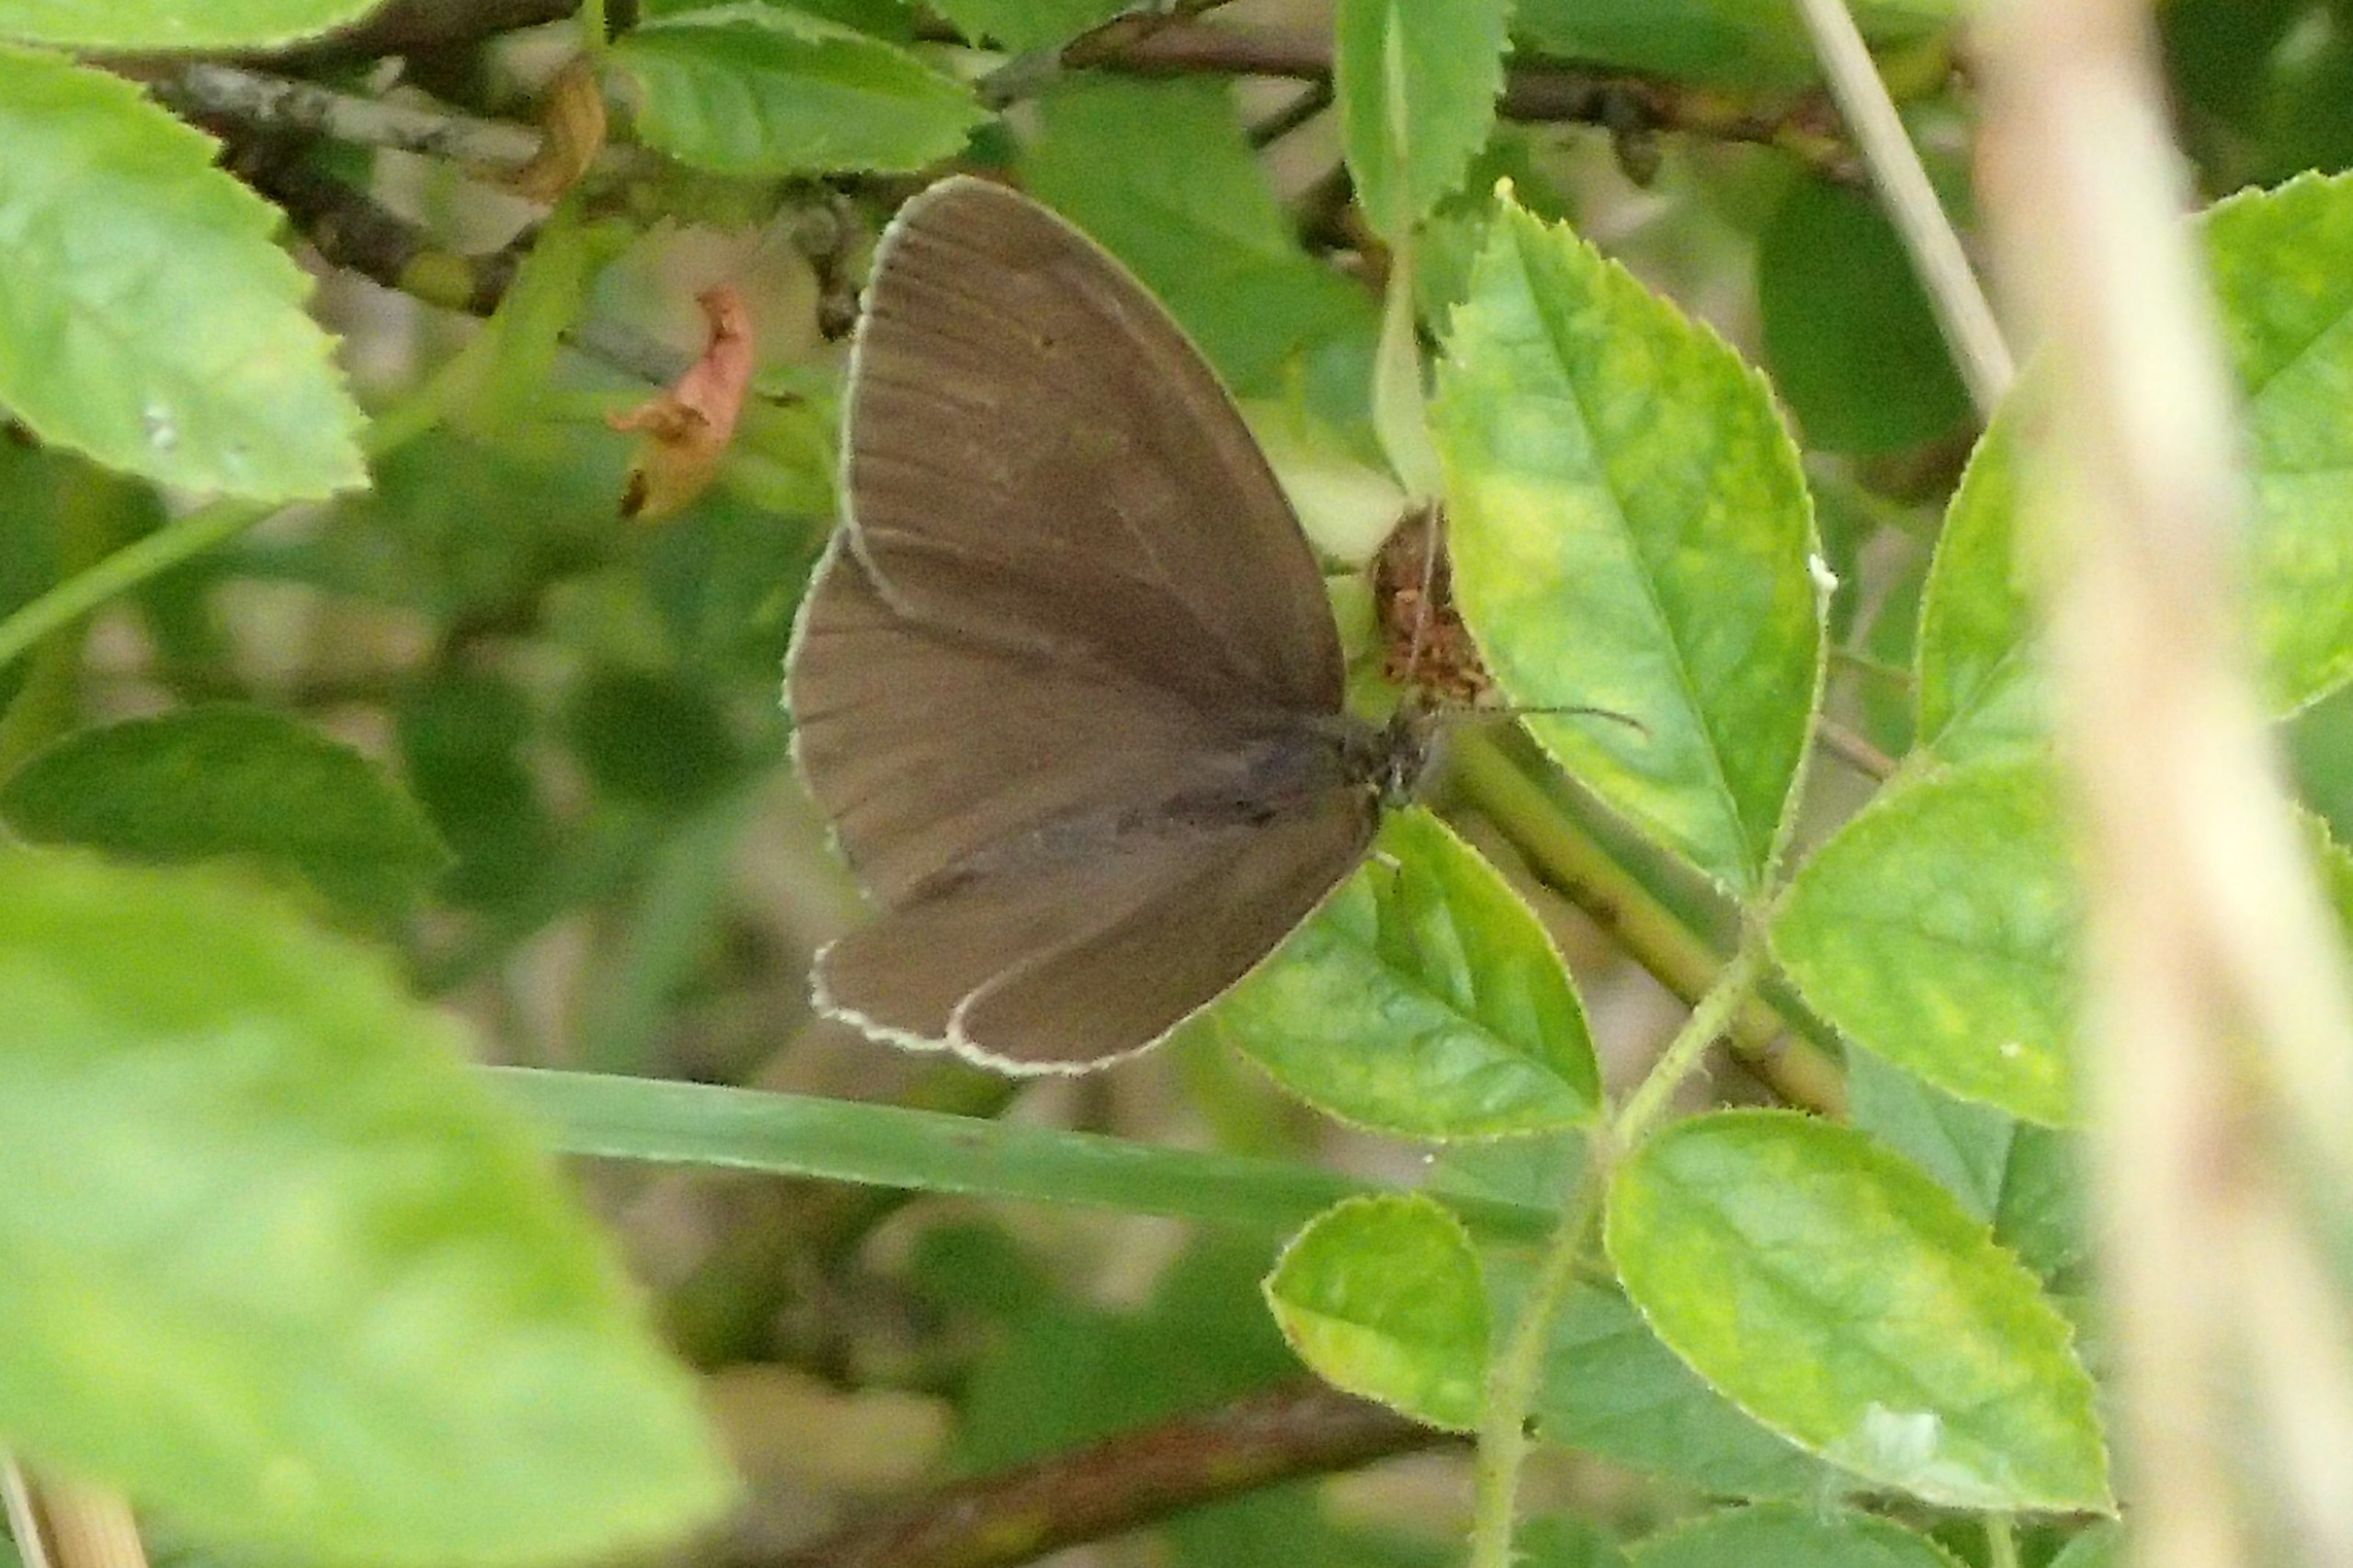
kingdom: Animalia
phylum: Arthropoda
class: Insecta
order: Lepidoptera
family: Nymphalidae
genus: Aphantopus
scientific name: Aphantopus hyperantus
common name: Engrandøje
